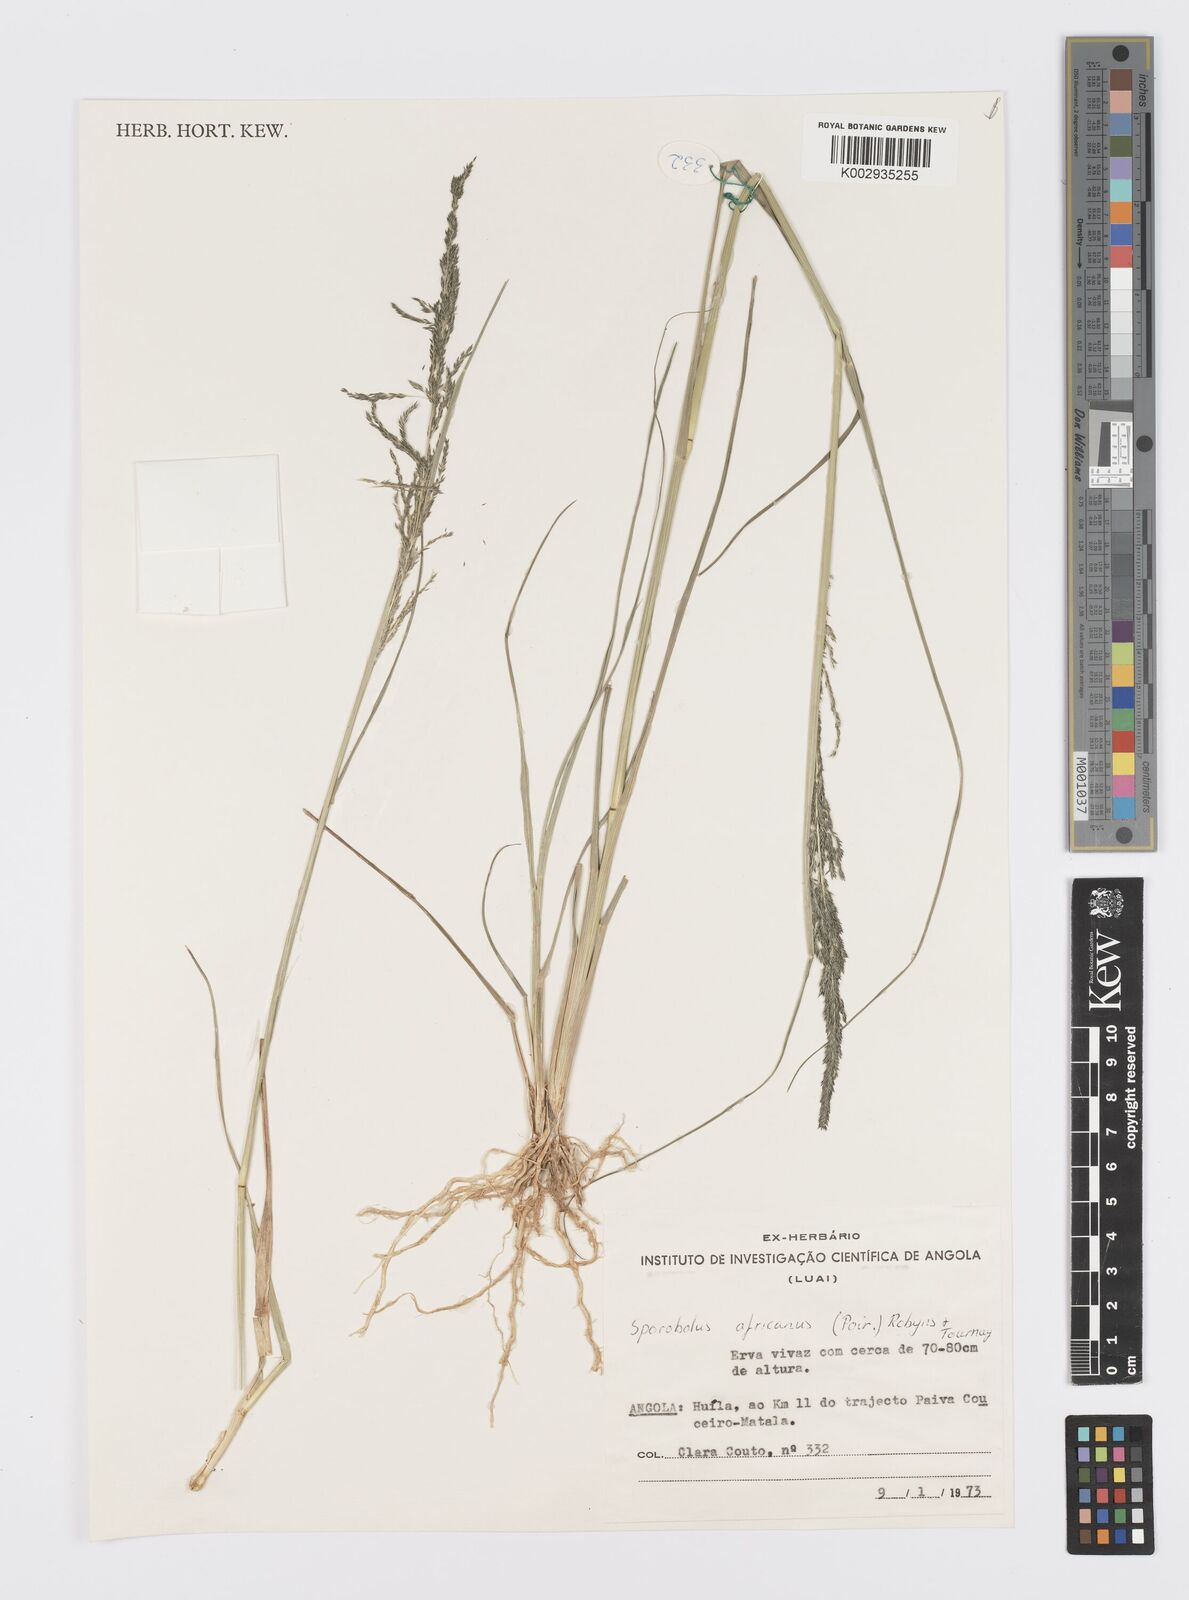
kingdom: Plantae
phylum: Tracheophyta
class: Liliopsida
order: Poales
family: Poaceae
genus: Sporobolus
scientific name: Sporobolus africanus
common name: African dropseed
